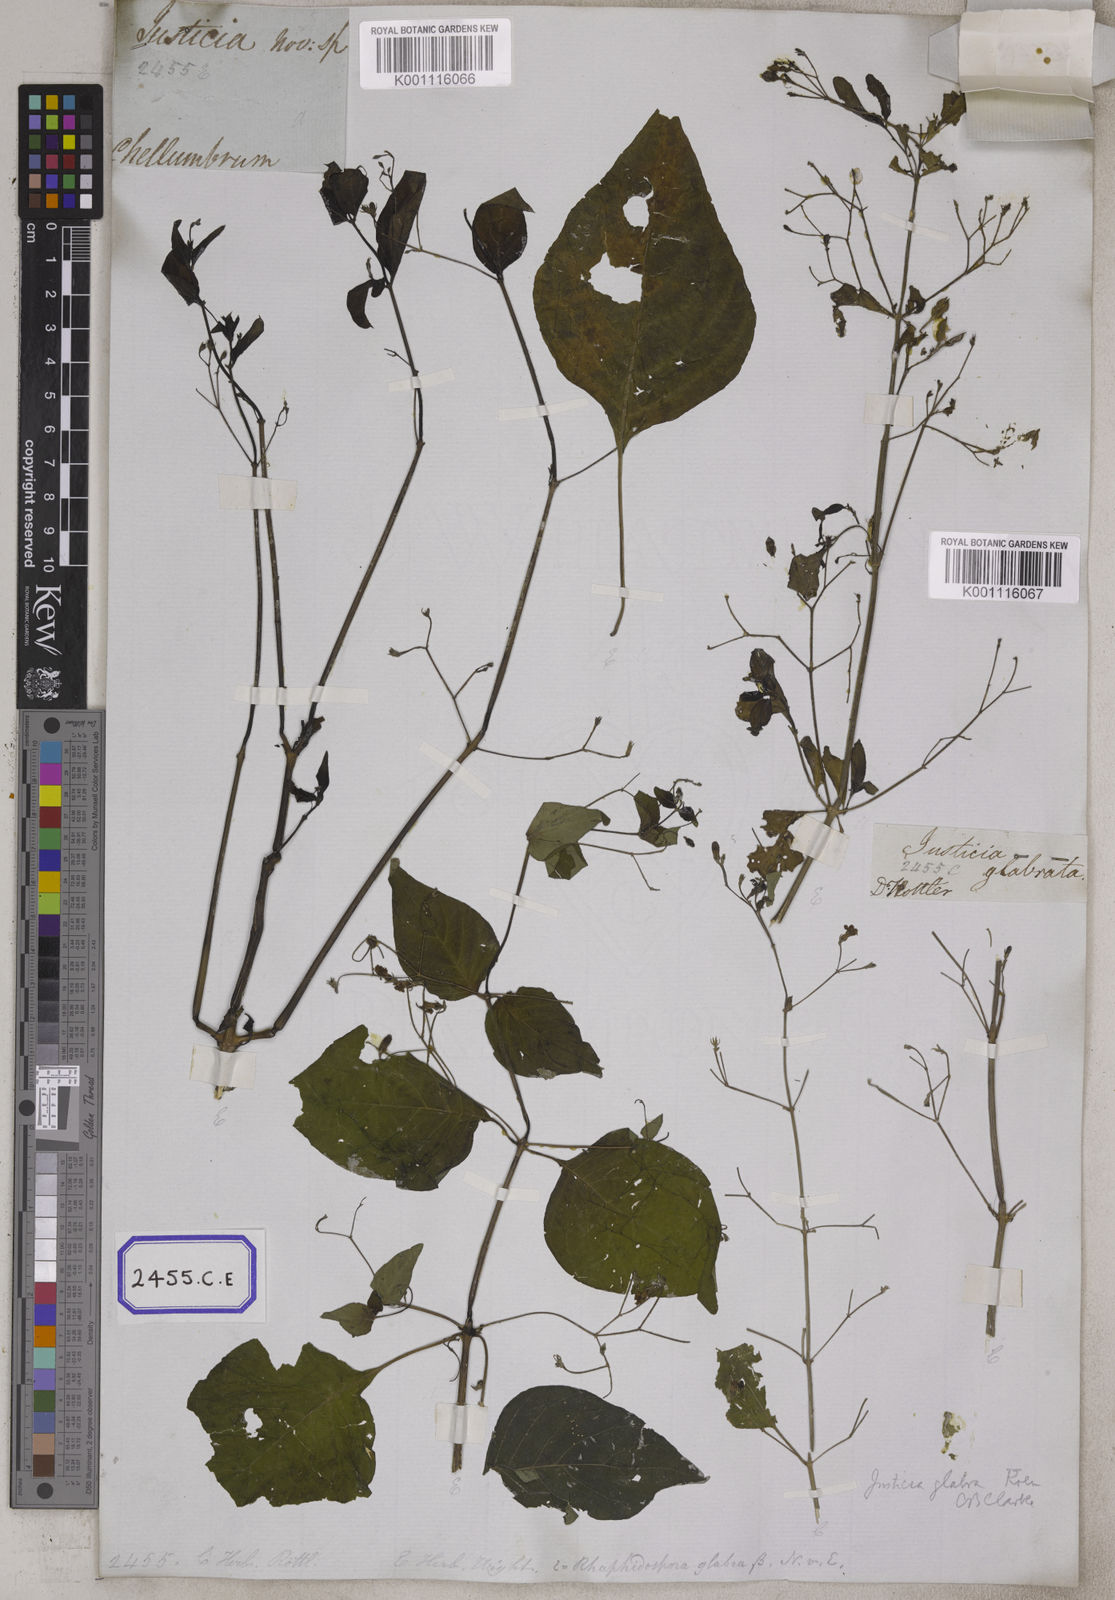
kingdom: Plantae
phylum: Tracheophyta
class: Magnoliopsida
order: Lamiales
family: Acanthaceae
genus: Justicia
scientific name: Justicia
